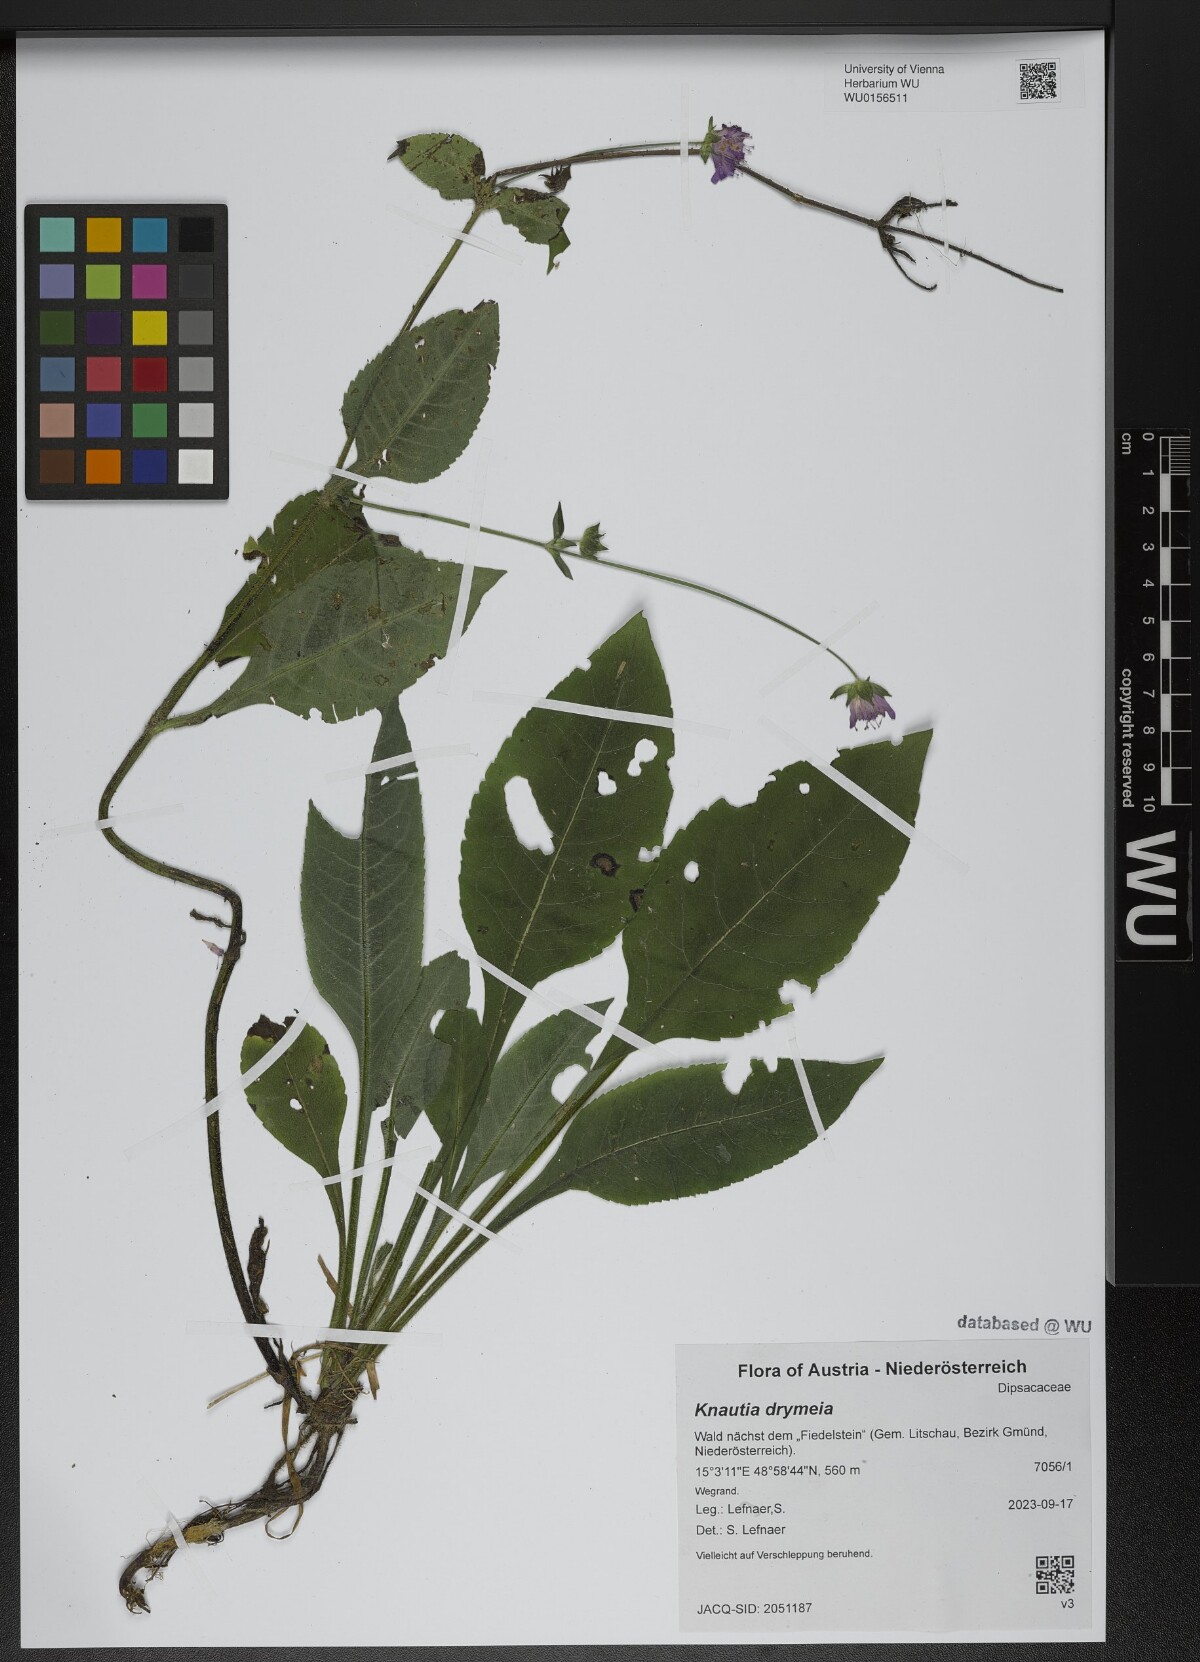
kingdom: Plantae
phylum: Tracheophyta
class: Magnoliopsida
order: Dipsacales
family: Caprifoliaceae
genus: Knautia
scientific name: Knautia drymeia
